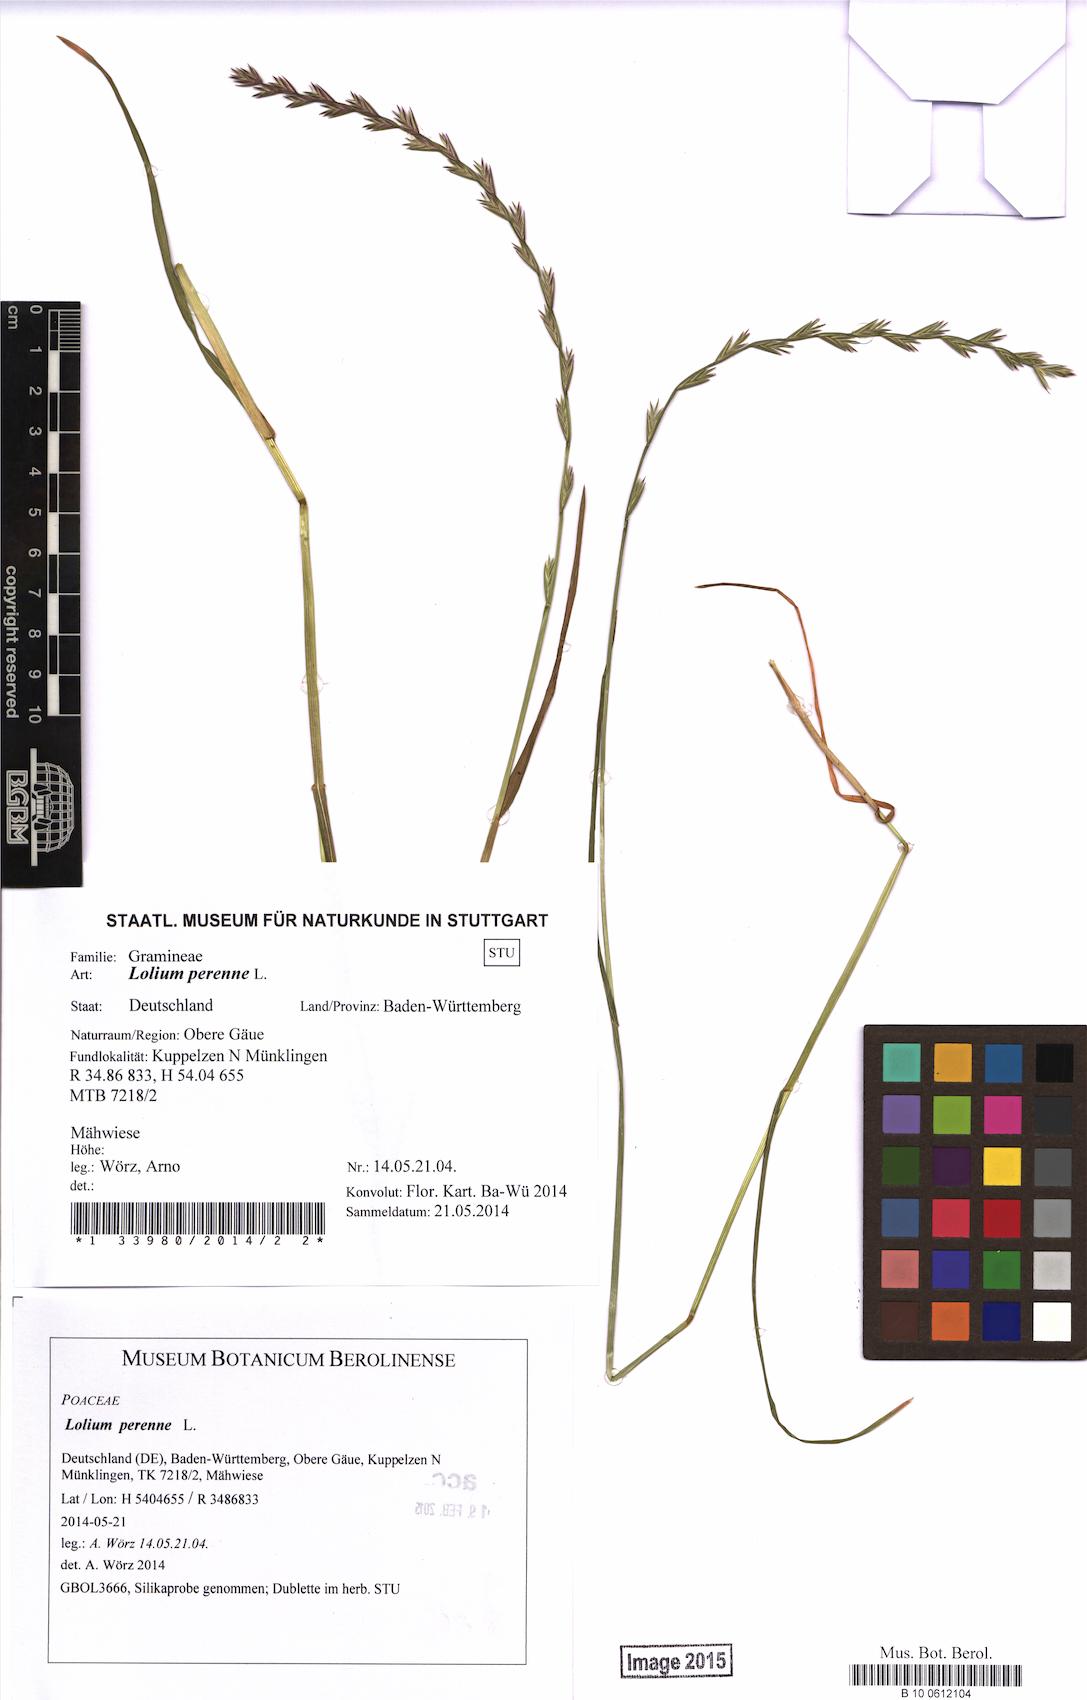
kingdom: Plantae
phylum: Tracheophyta
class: Liliopsida
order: Poales
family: Poaceae
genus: Lolium
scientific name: Lolium perenne
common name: Perennial ryegrass
